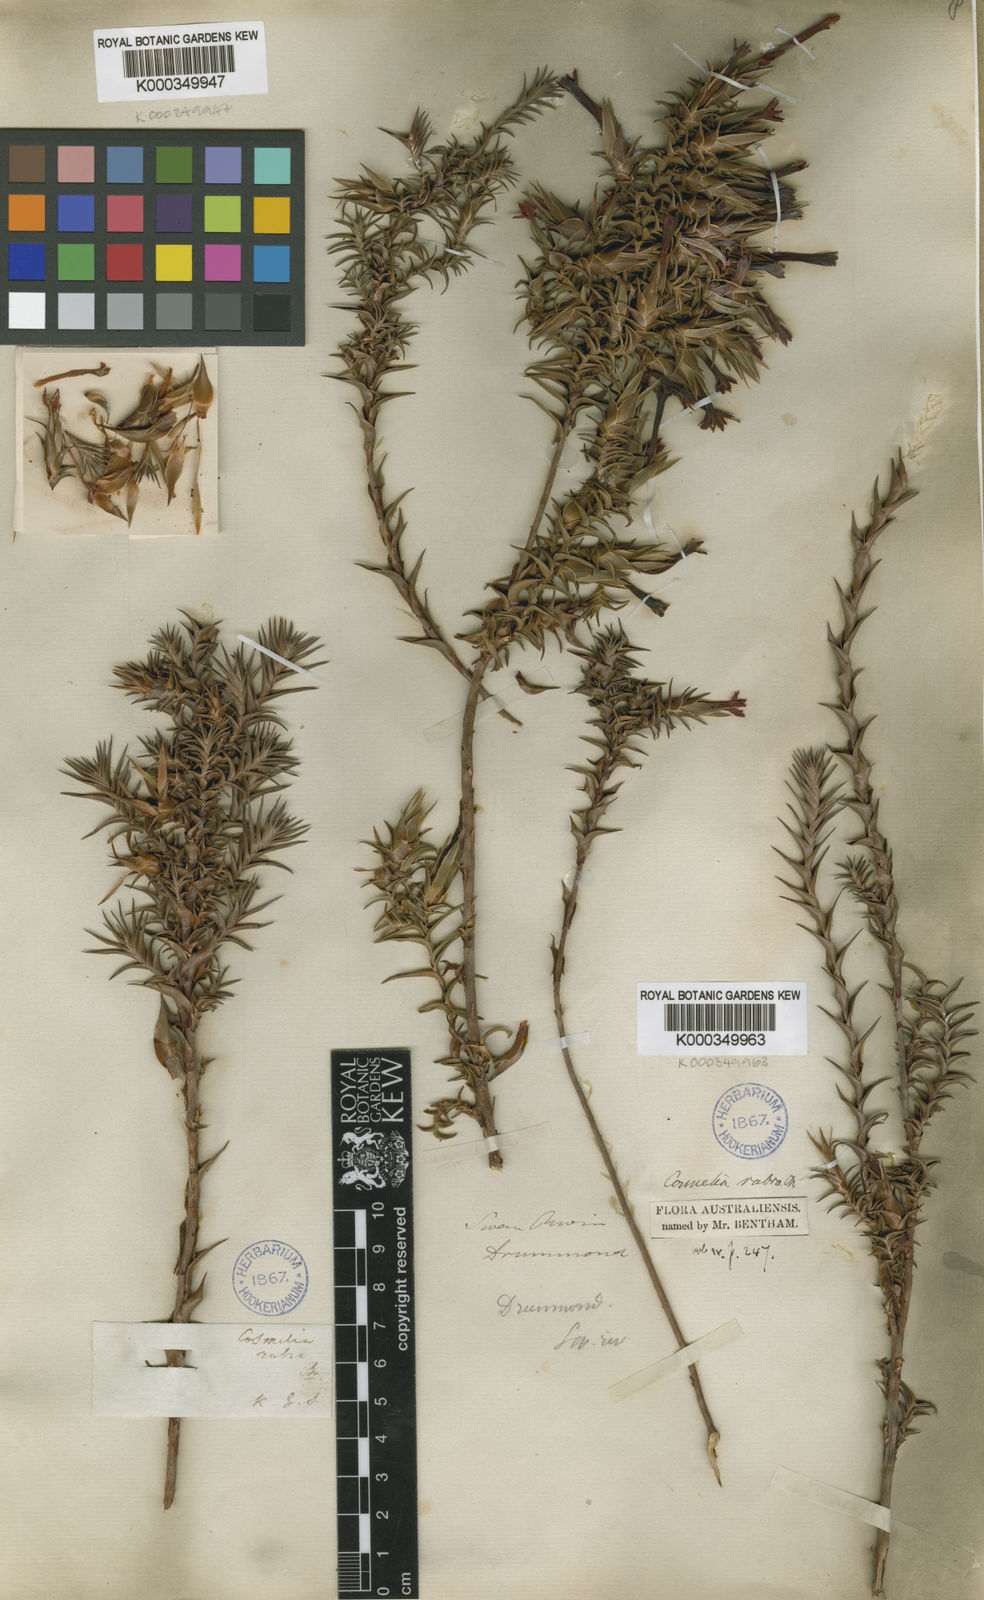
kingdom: Plantae
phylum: Tracheophyta
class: Magnoliopsida
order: Ericales
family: Ericaceae
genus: Cosmelia
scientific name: Cosmelia rubra
